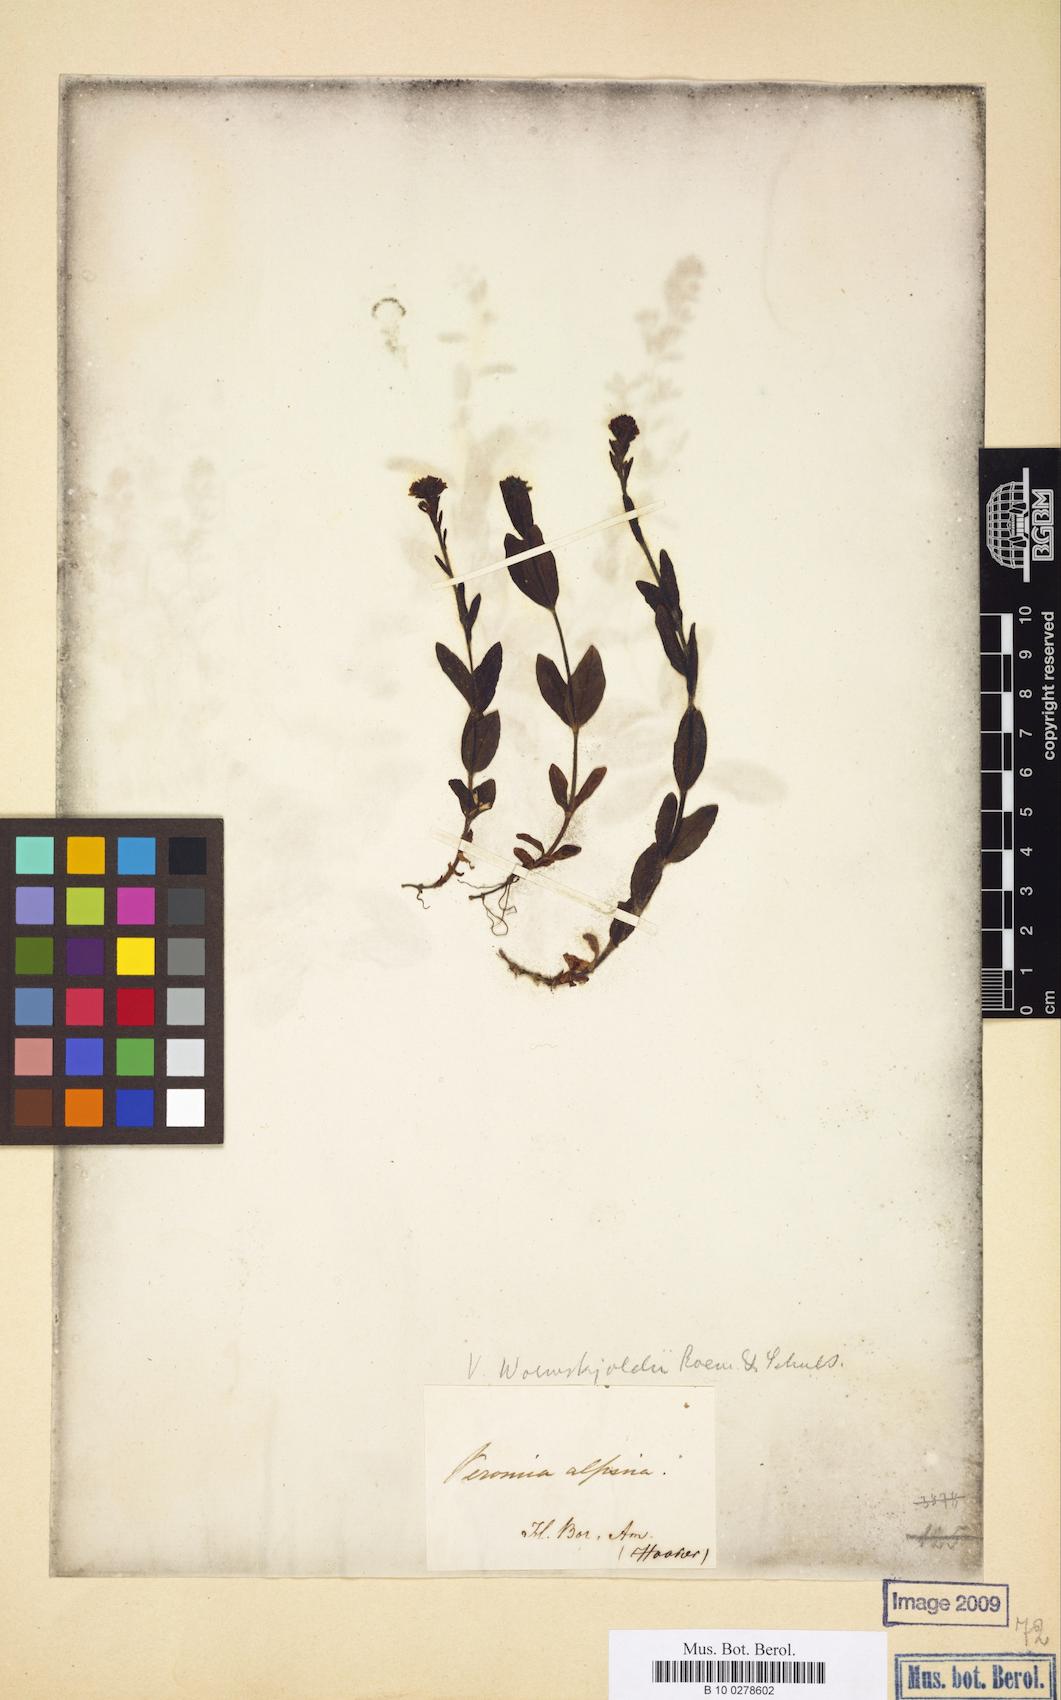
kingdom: Plantae
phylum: Tracheophyta
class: Magnoliopsida
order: Lamiales
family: Plantaginaceae
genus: Veronica
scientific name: Veronica wormskjoldii
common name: American alpine speedwell
